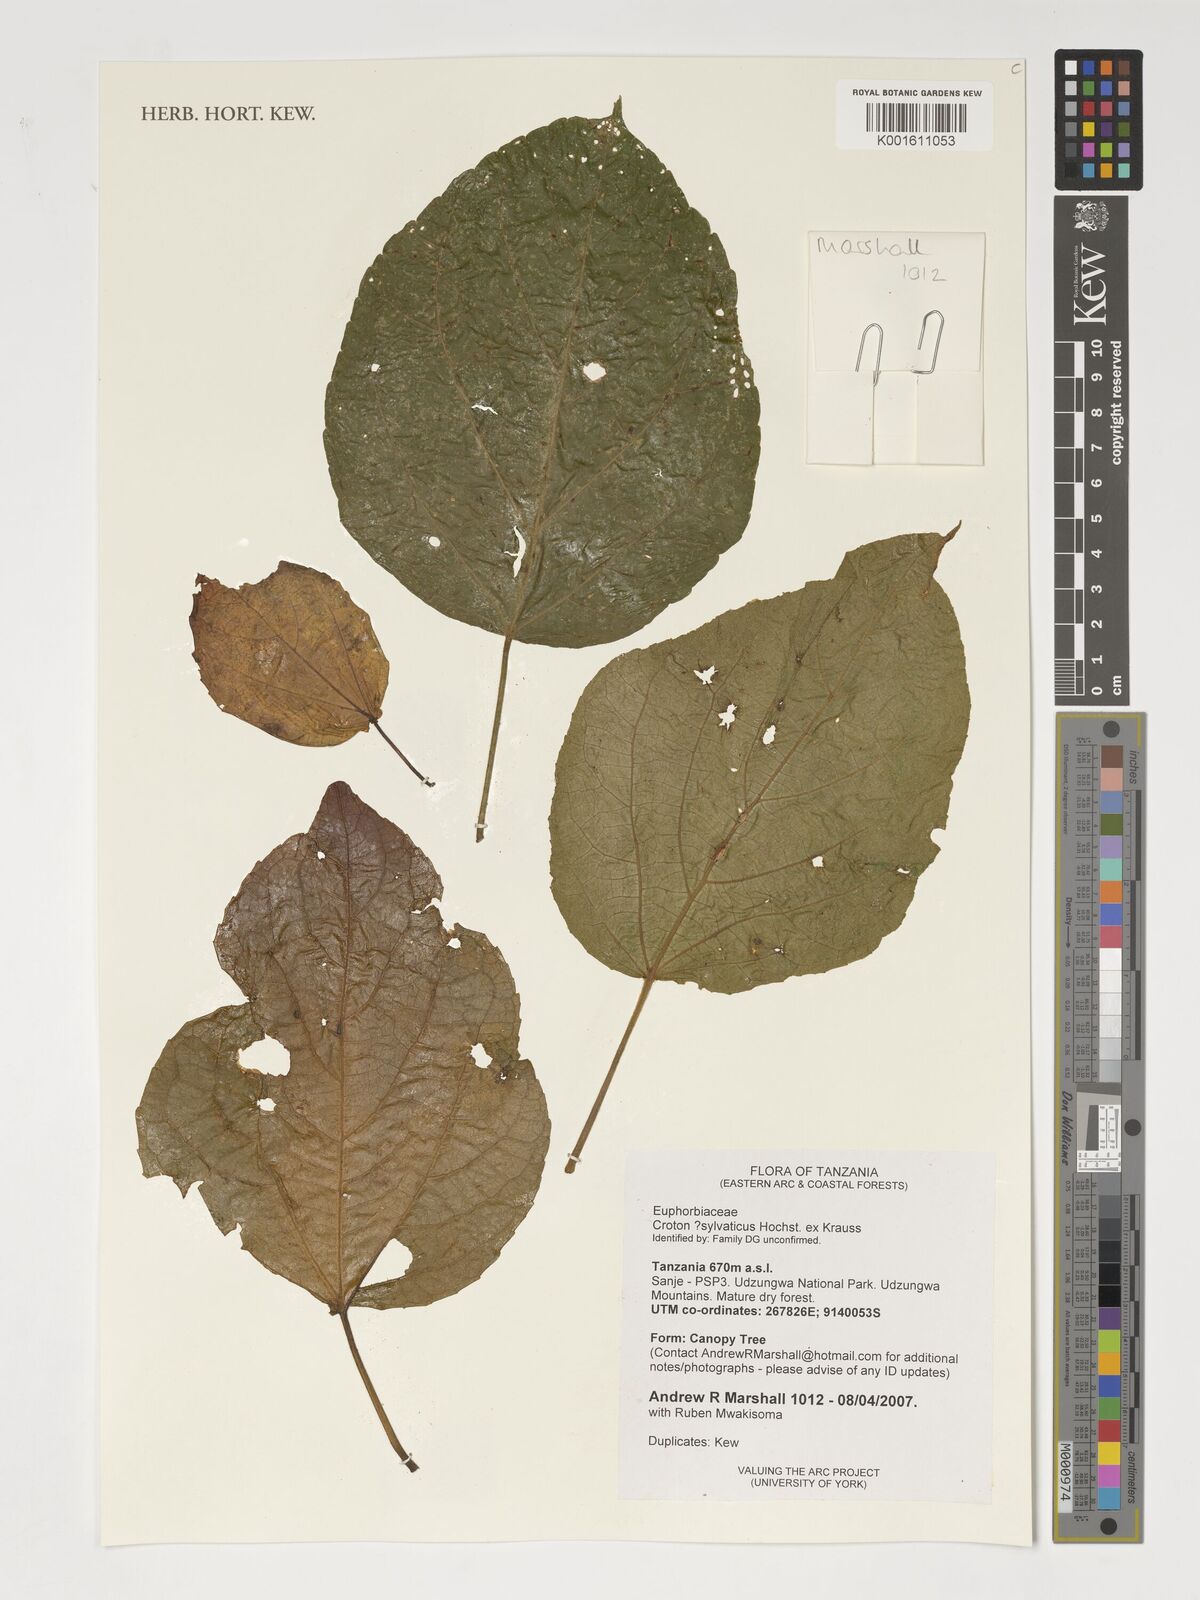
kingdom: Plantae
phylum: Tracheophyta
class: Magnoliopsida
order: Malpighiales
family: Euphorbiaceae
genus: Croton
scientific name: Croton sylvaticus
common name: Forest croton
